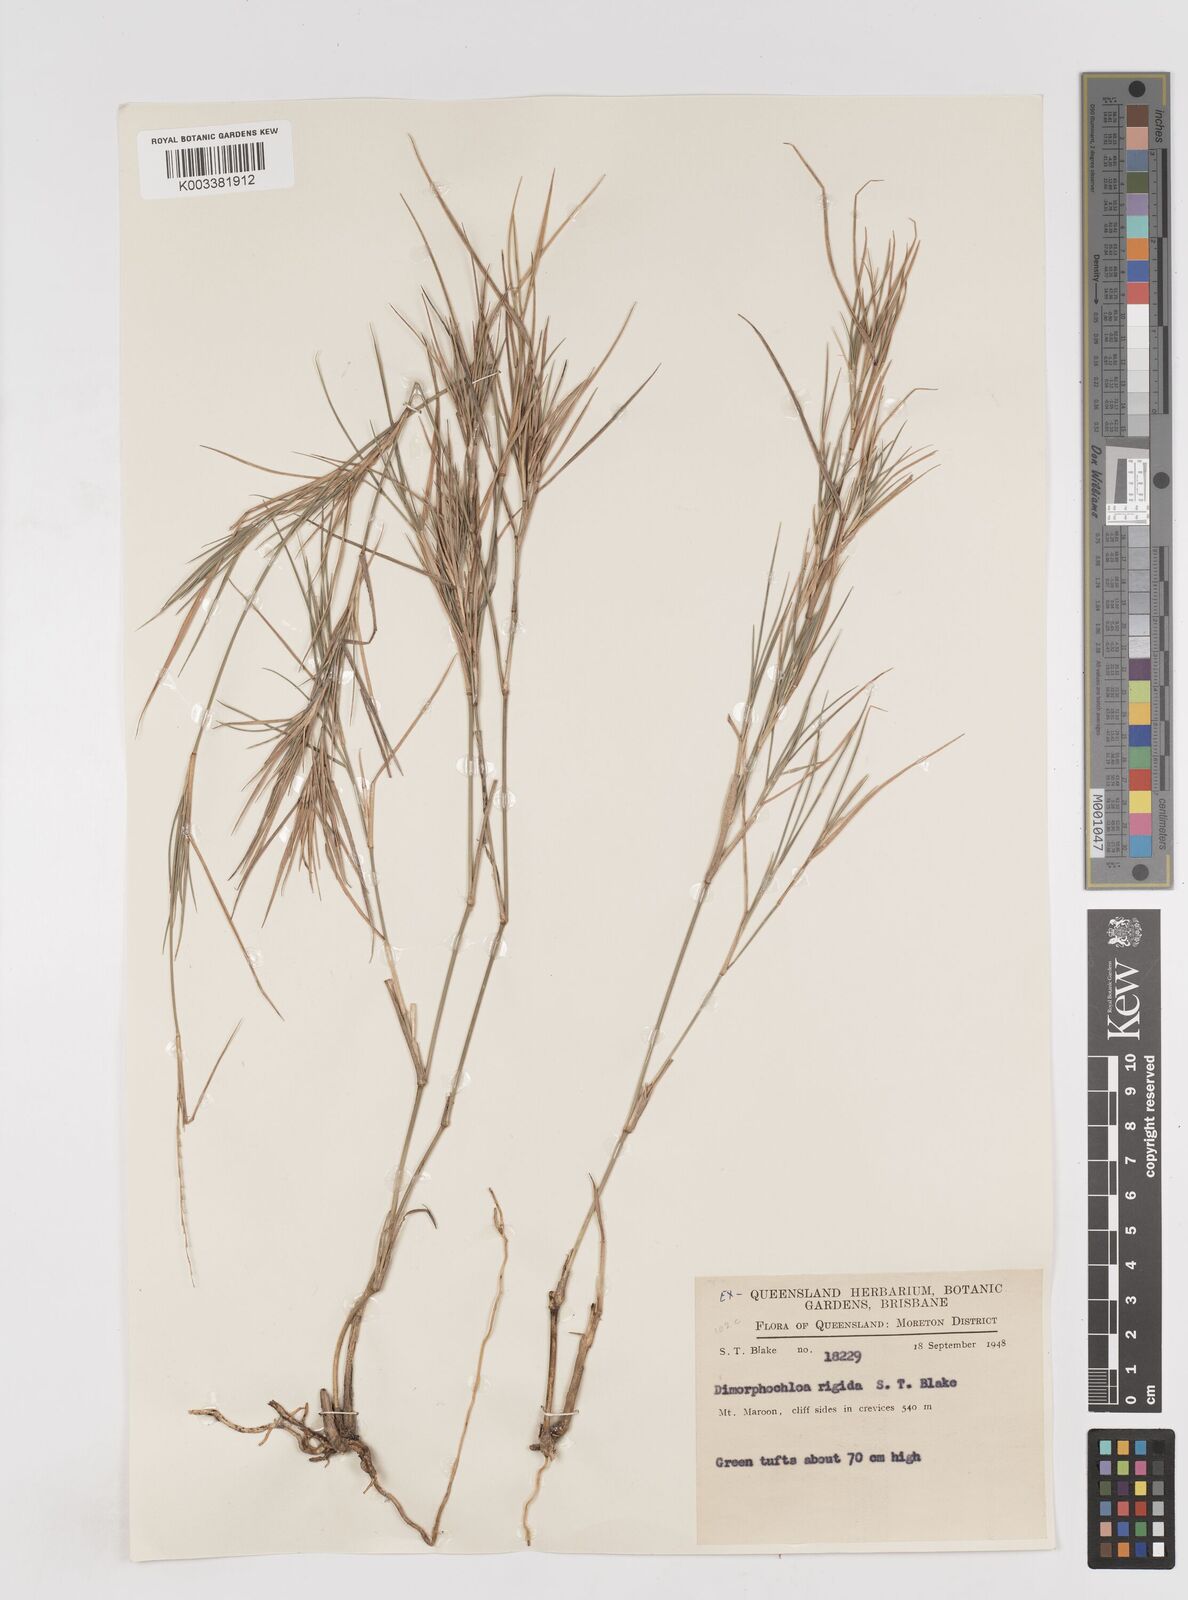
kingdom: Plantae
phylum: Tracheophyta
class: Liliopsida
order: Poales
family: Poaceae
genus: Dimorphochloa
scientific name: Dimorphochloa rigida
